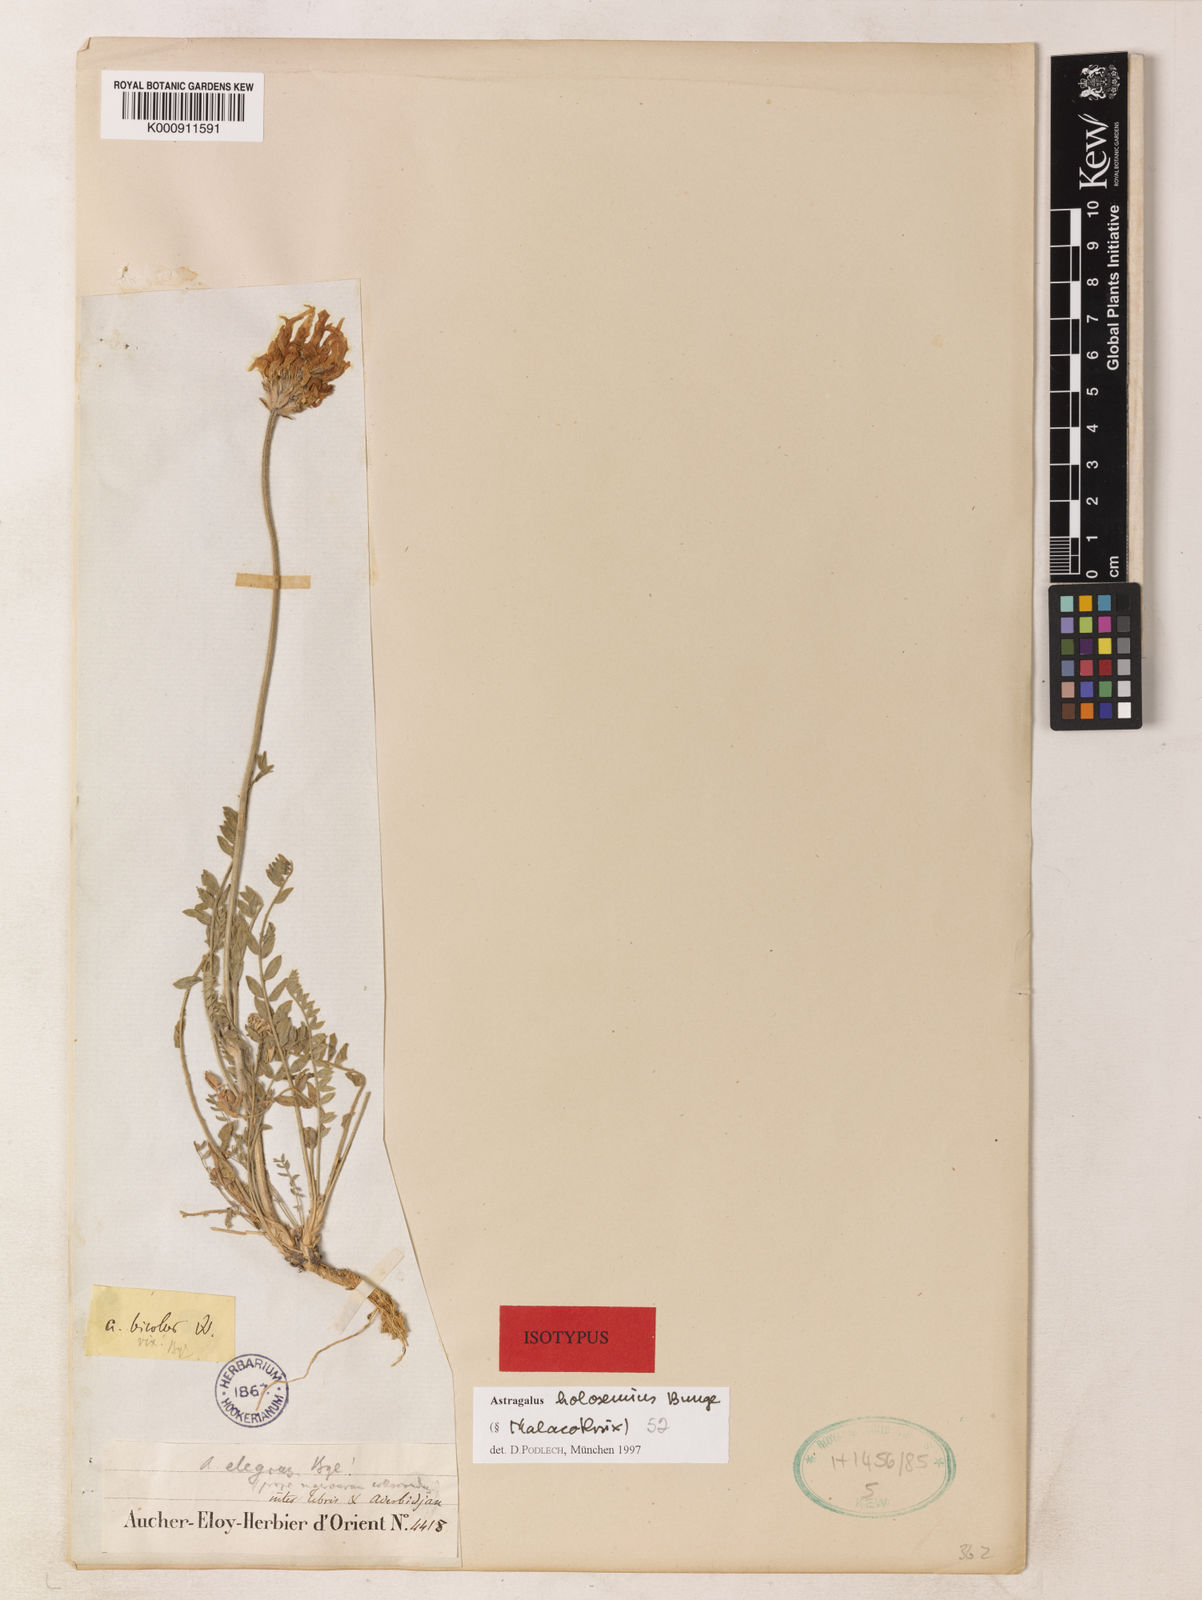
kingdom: Plantae
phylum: Tracheophyta
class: Magnoliopsida
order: Fabales
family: Fabaceae
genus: Astragalus
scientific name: Astragalus holosemius
